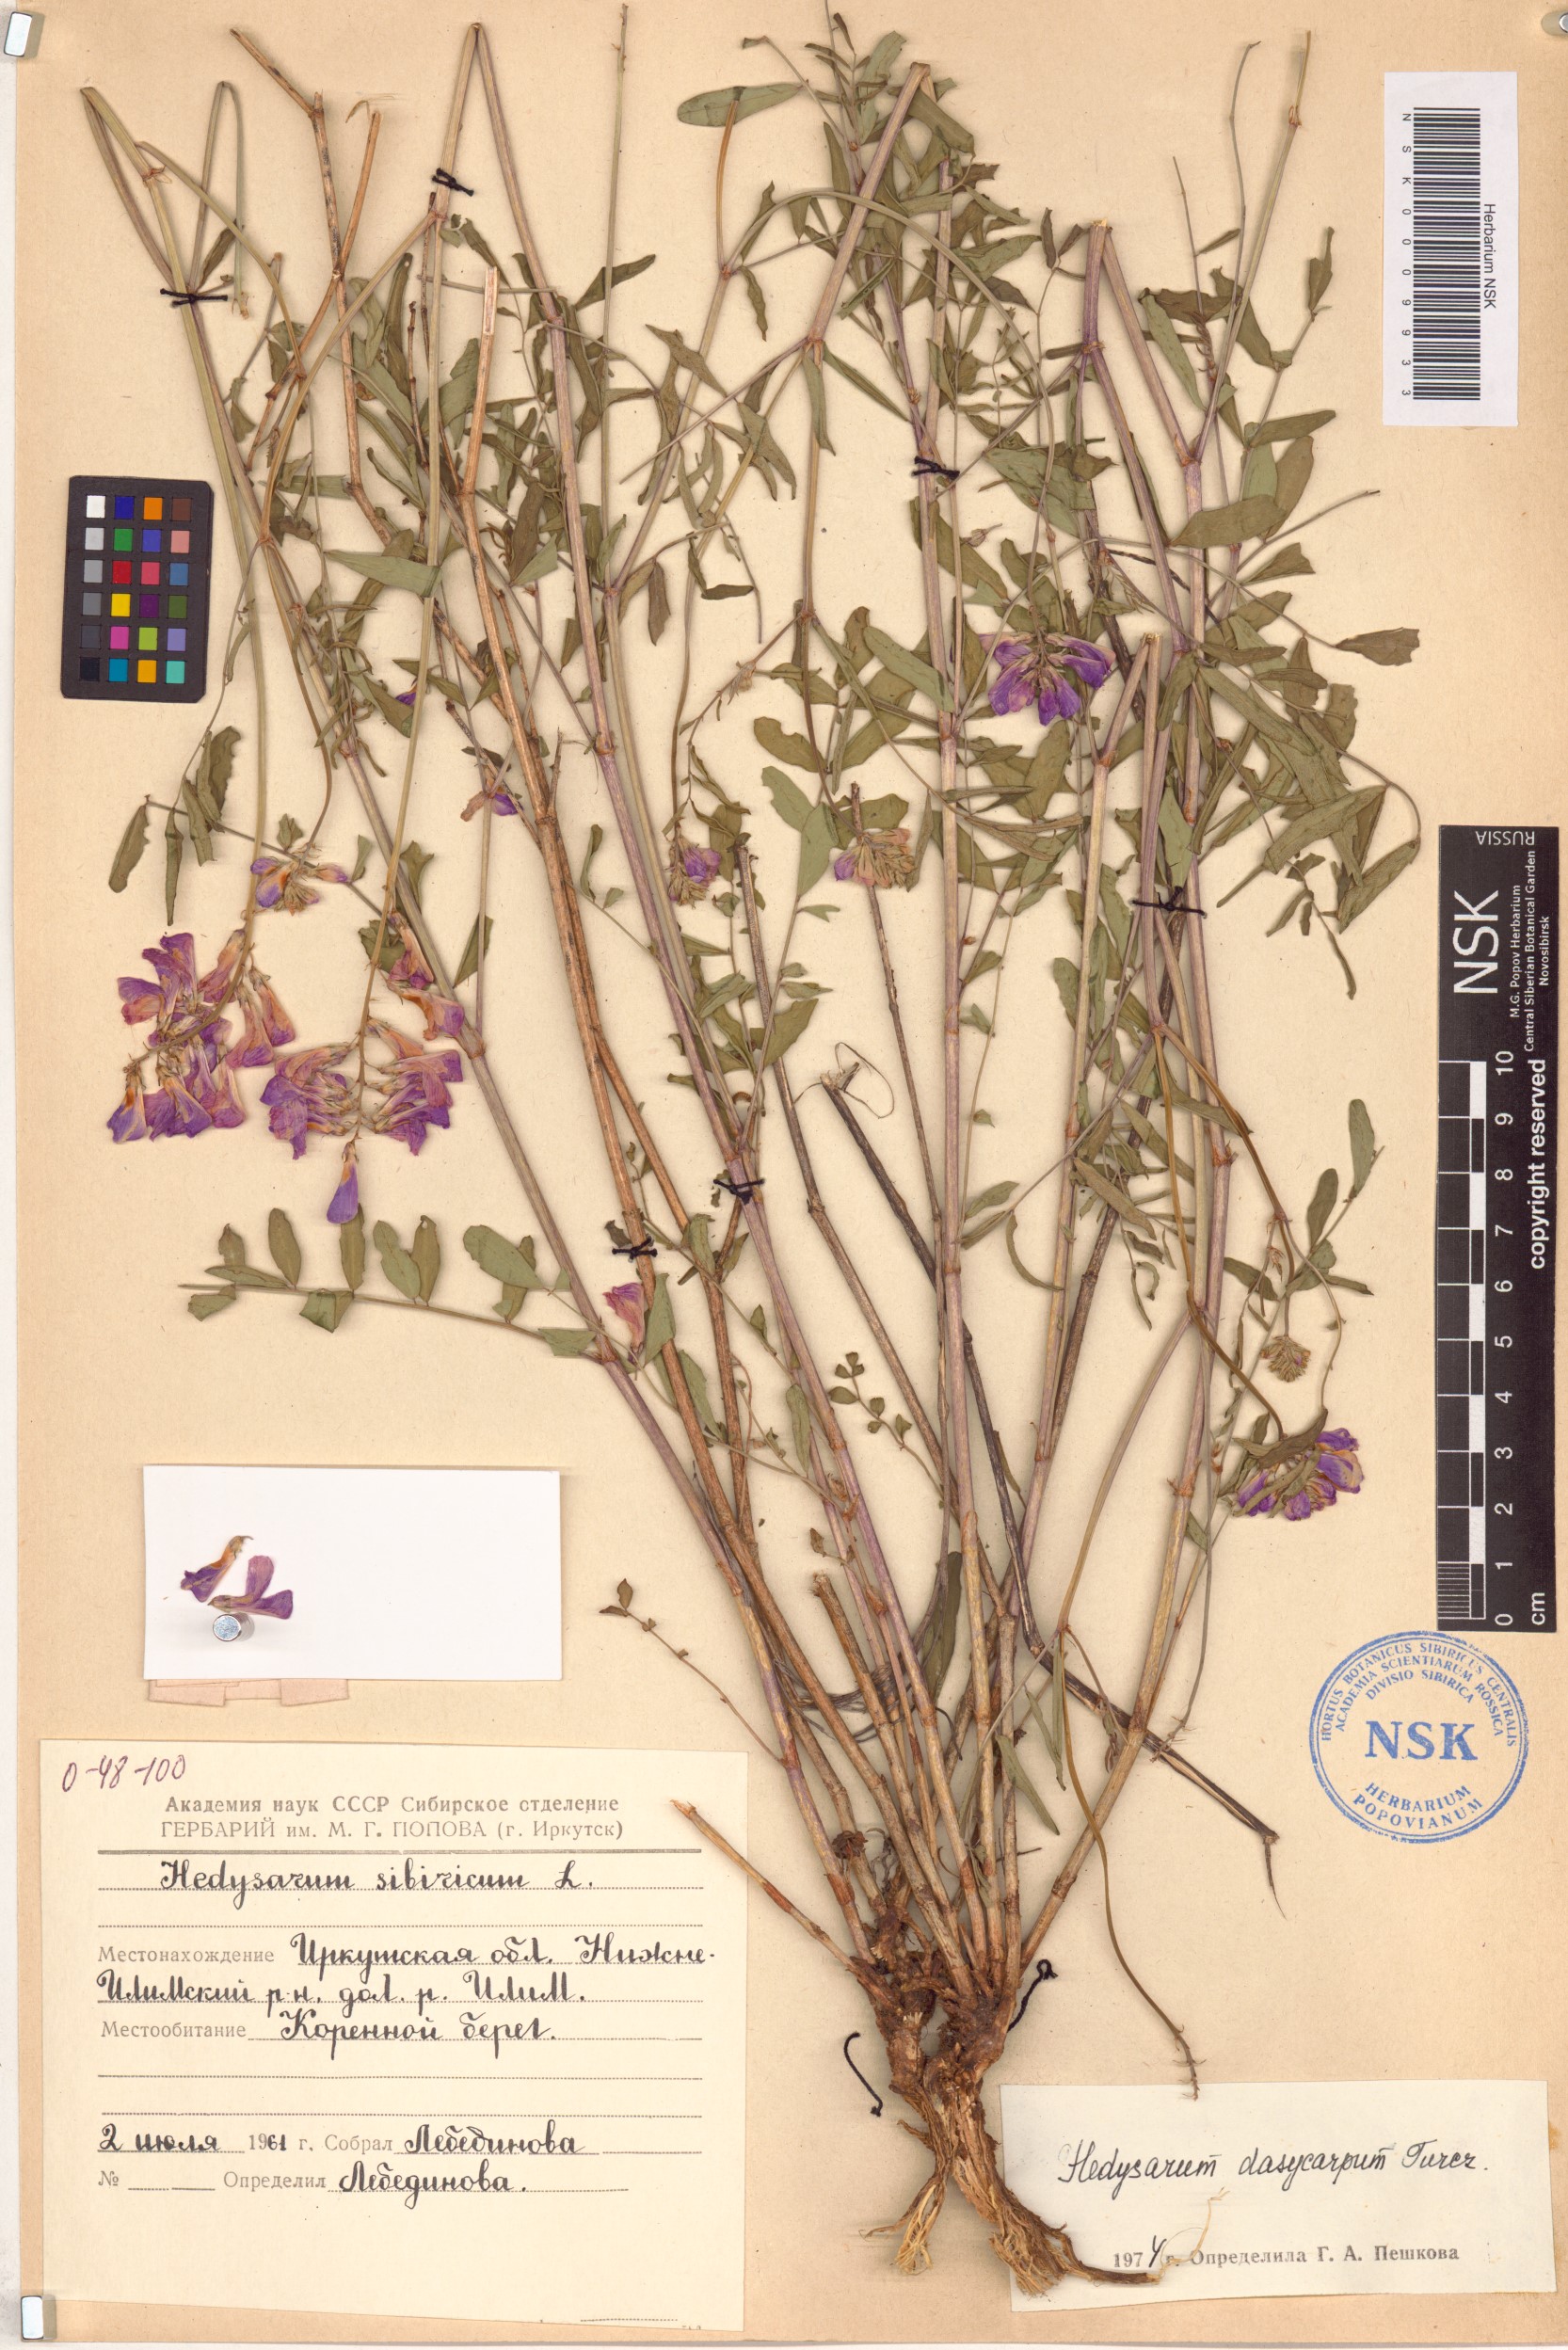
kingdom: Plantae
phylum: Tracheophyta
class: Magnoliopsida
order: Fabales
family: Fabaceae
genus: Hedysarum
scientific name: Hedysarum dasycarpum
